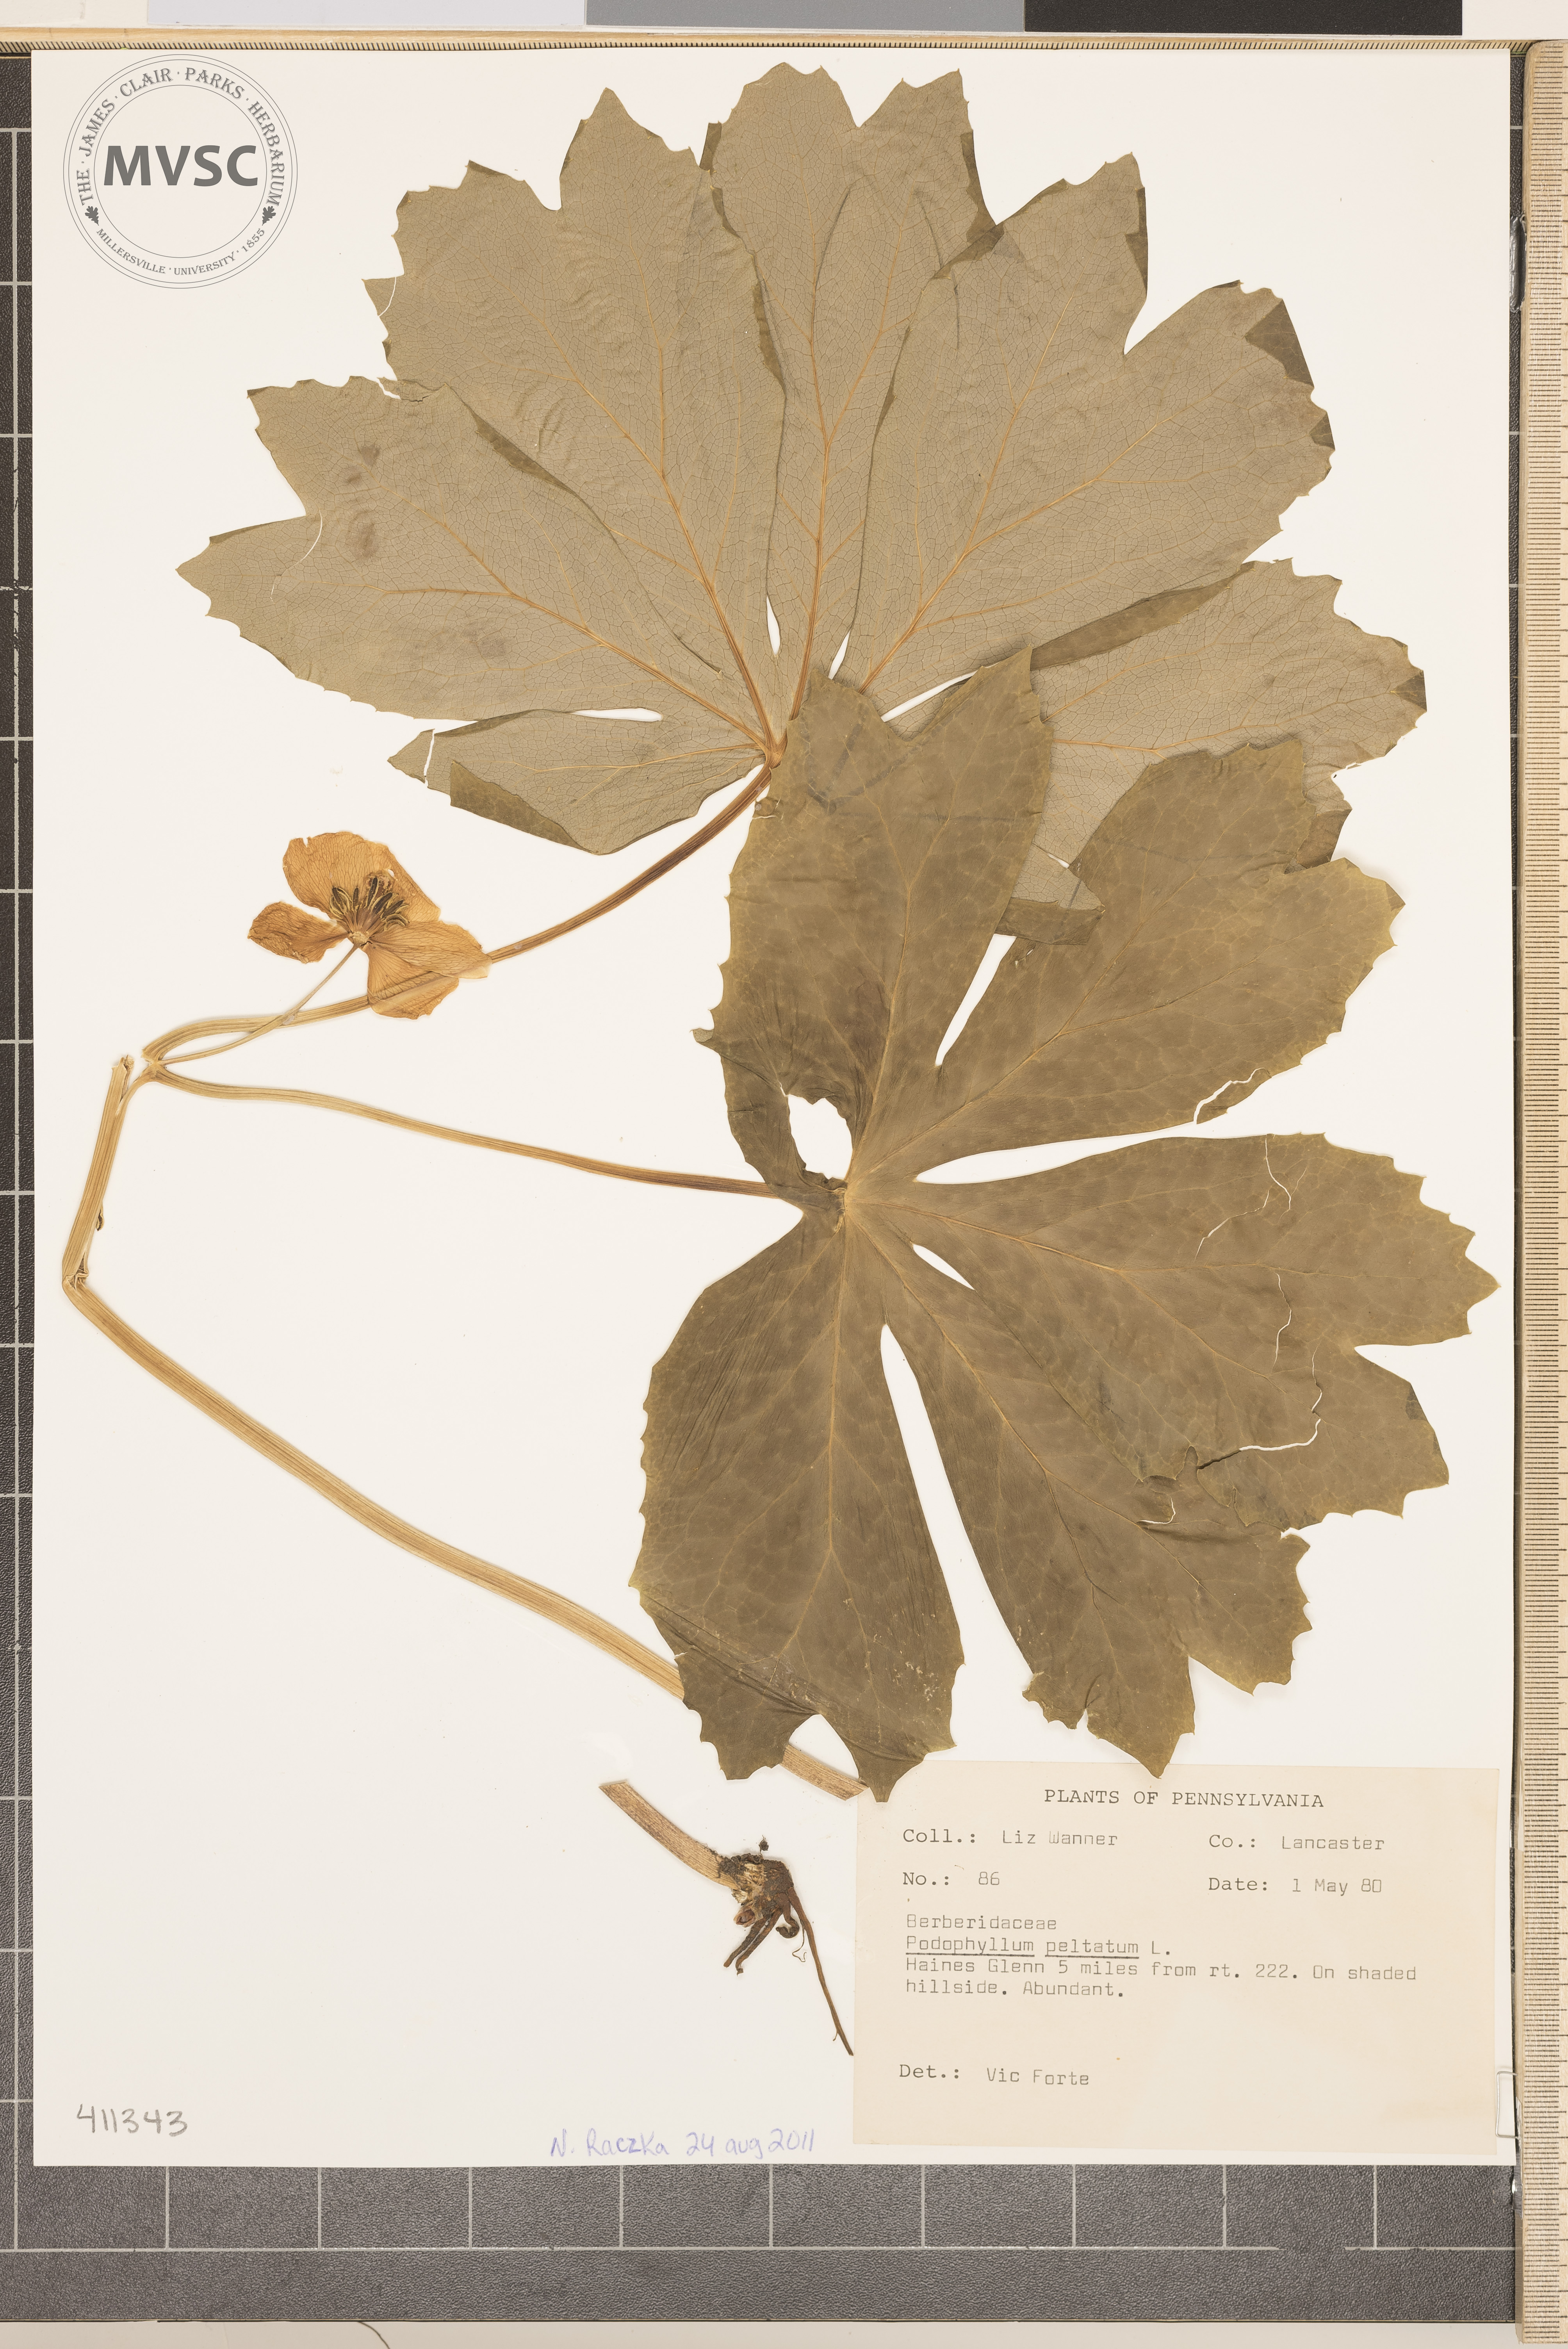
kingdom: Plantae
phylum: Tracheophyta
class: Magnoliopsida
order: Ranunculales
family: Berberidaceae
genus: Podophyllum
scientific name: Podophyllum peltatum
